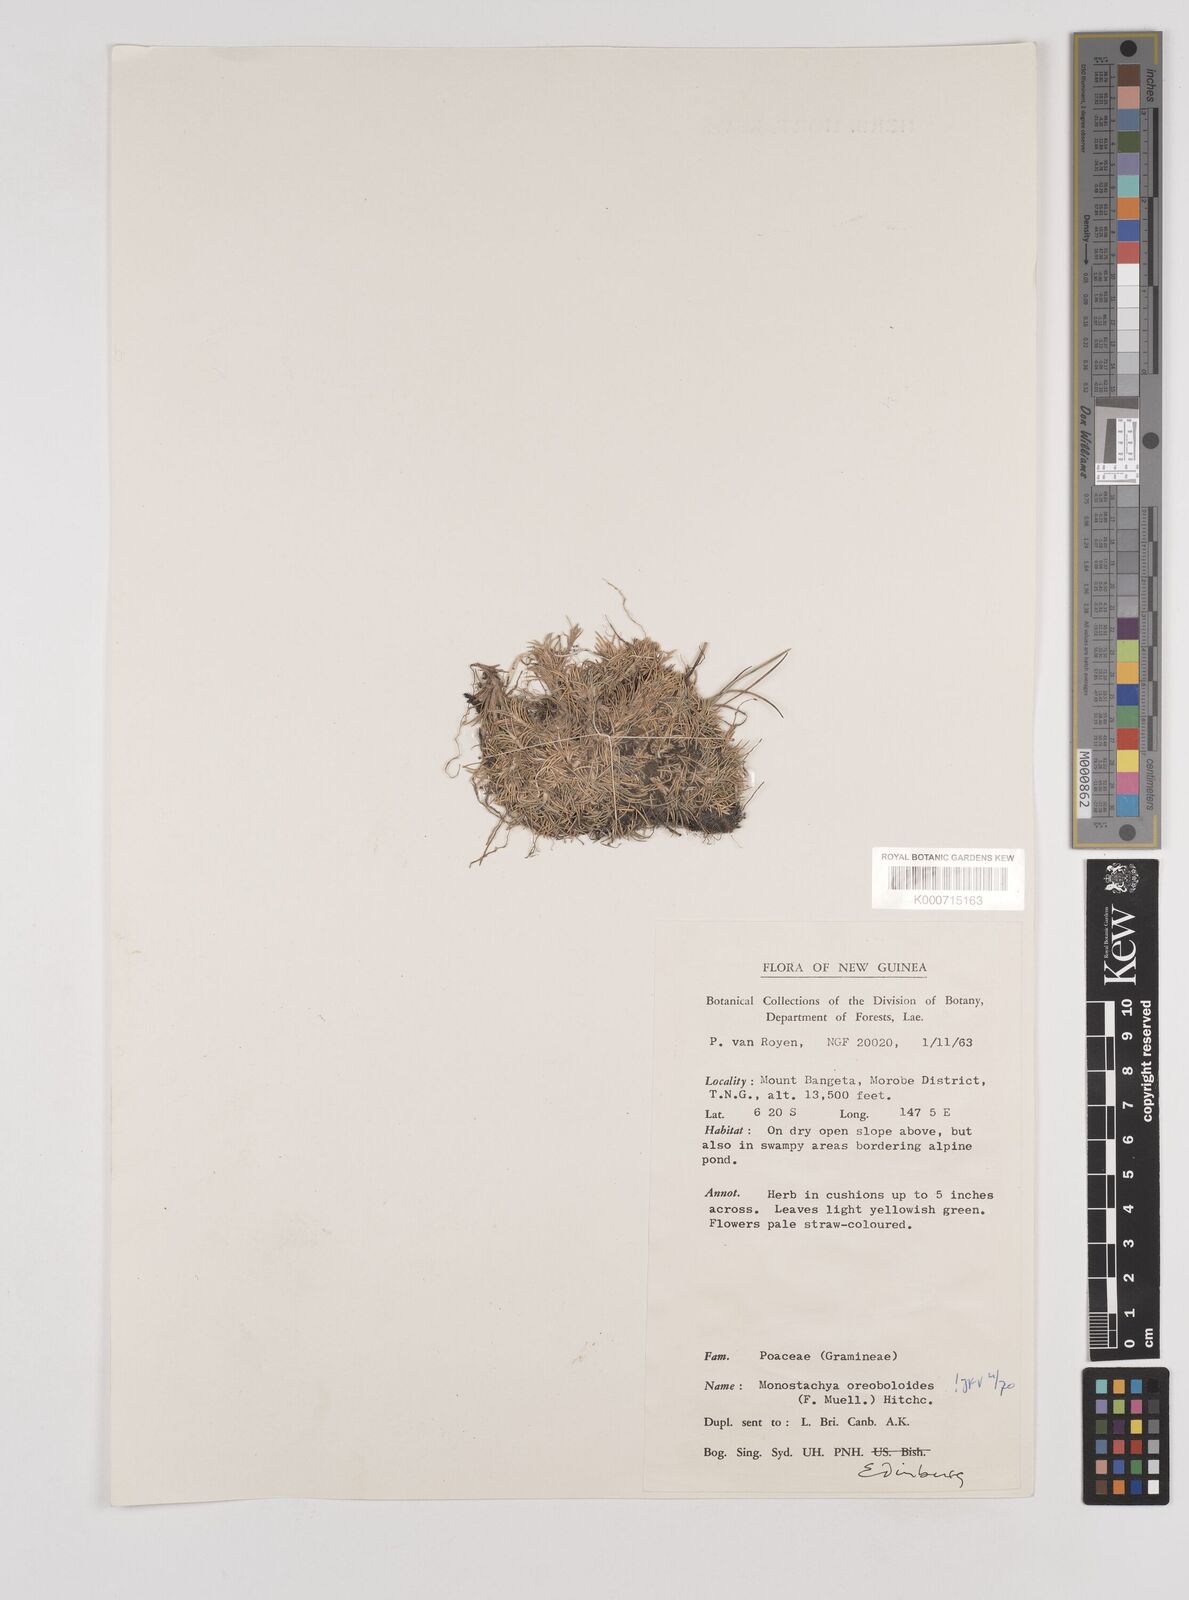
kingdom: Plantae
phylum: Tracheophyta
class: Liliopsida
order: Poales
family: Poaceae
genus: Rytidosperma
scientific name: Rytidosperma oreoboloides
